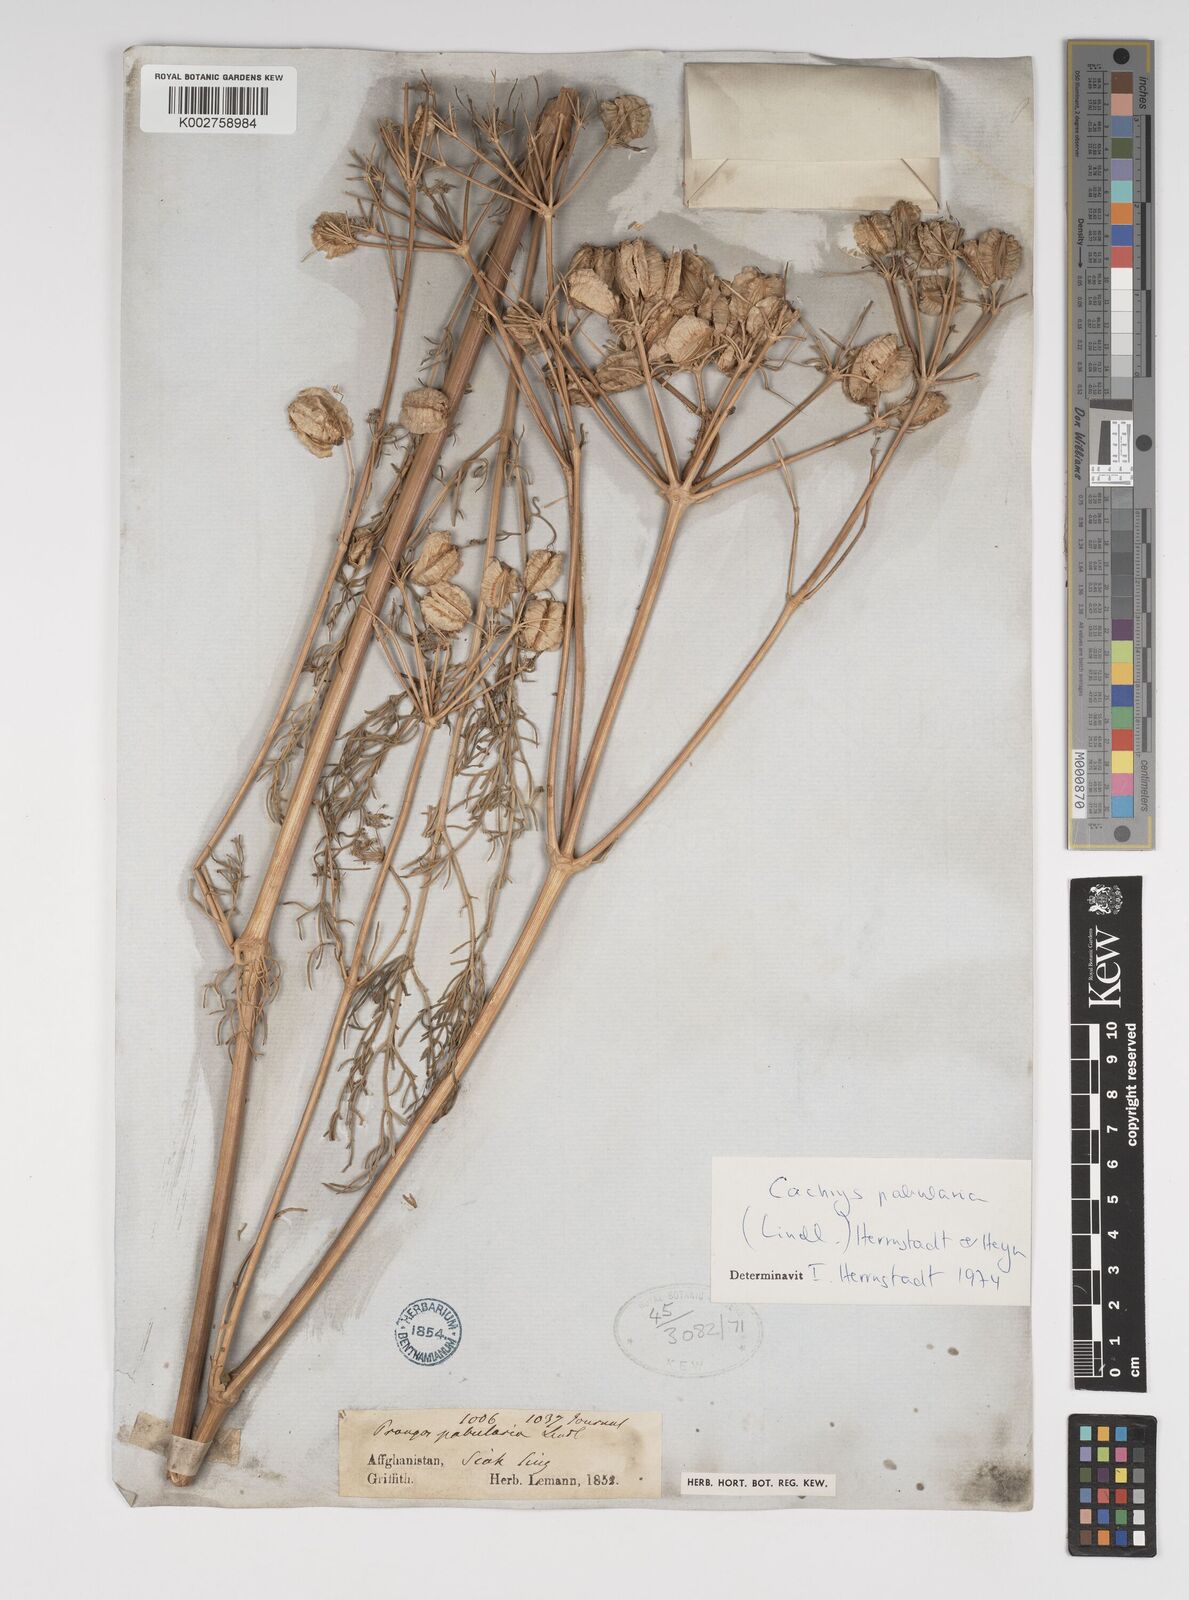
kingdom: Plantae
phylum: Tracheophyta
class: Magnoliopsida
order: Apiales
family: Apiaceae
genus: Prangos
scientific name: Prangos pabularia
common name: Yugan
